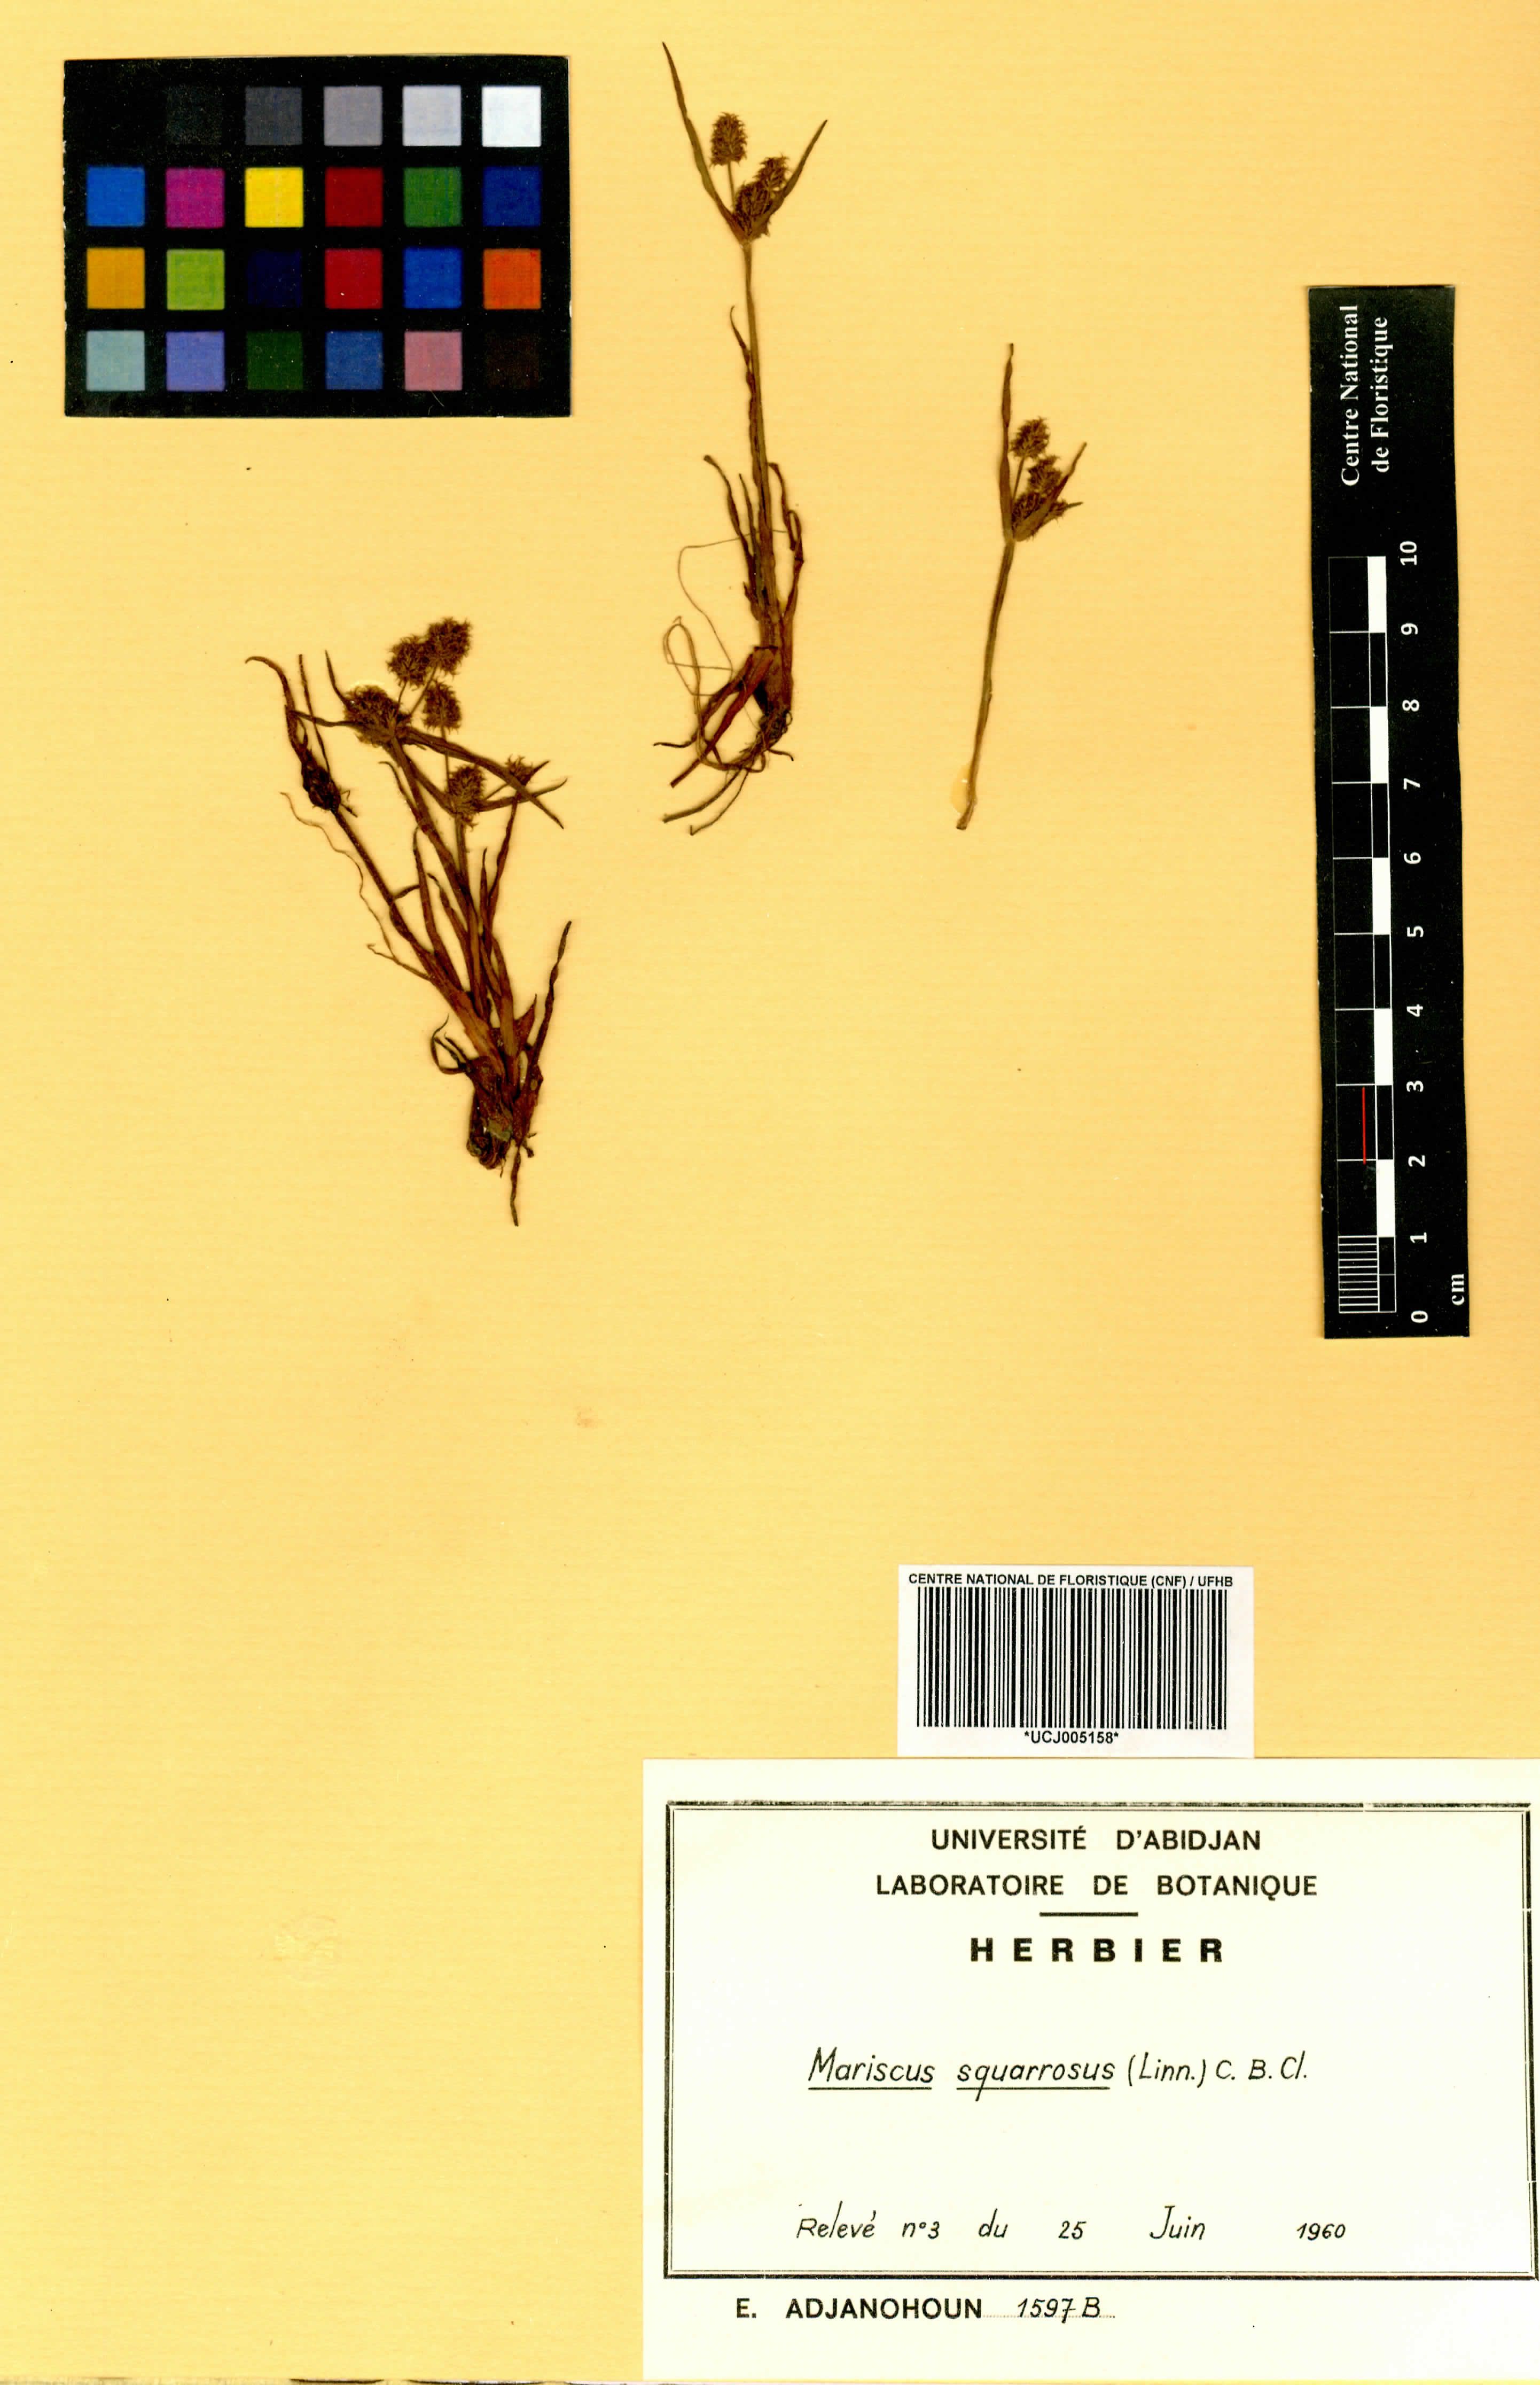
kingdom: Plantae
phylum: Tracheophyta
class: Liliopsida
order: Poales
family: Cyperaceae
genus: Cyperus
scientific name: Cyperus squarrosus
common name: Awned cyperus
